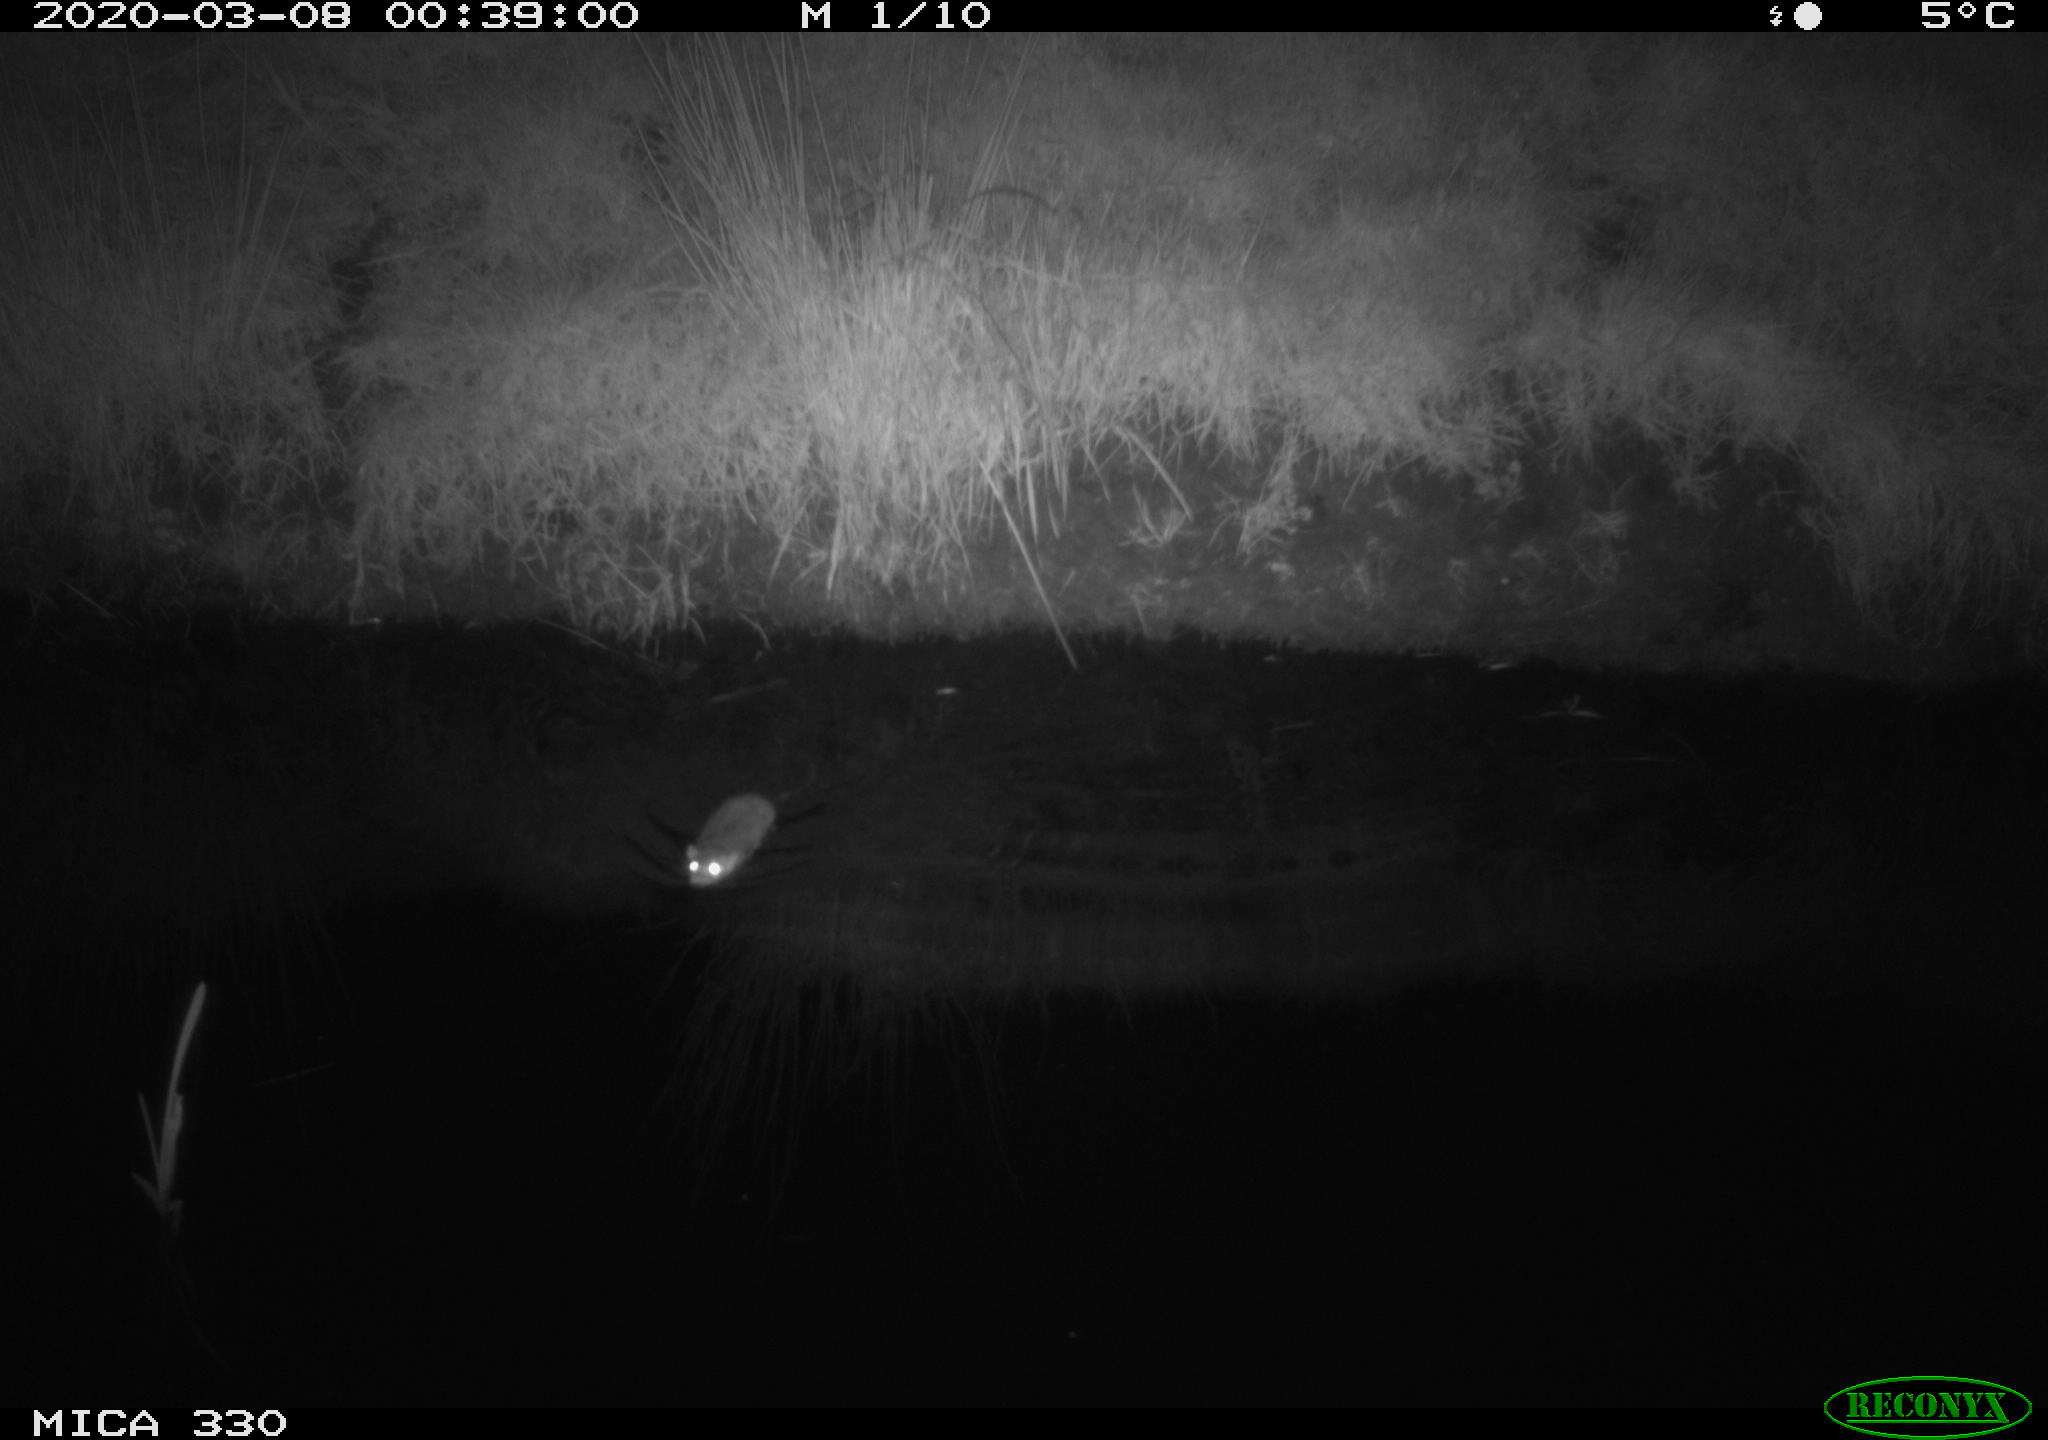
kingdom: Animalia
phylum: Chordata
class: Mammalia
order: Rodentia
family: Muridae
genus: Rattus
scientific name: Rattus norvegicus
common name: Brown rat
